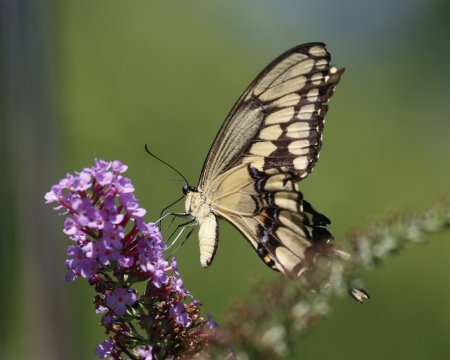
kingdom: Animalia
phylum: Arthropoda
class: Insecta
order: Lepidoptera
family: Papilionidae
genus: Papilio
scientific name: Papilio cresphontes
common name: Eastern Giant Swallowtail
